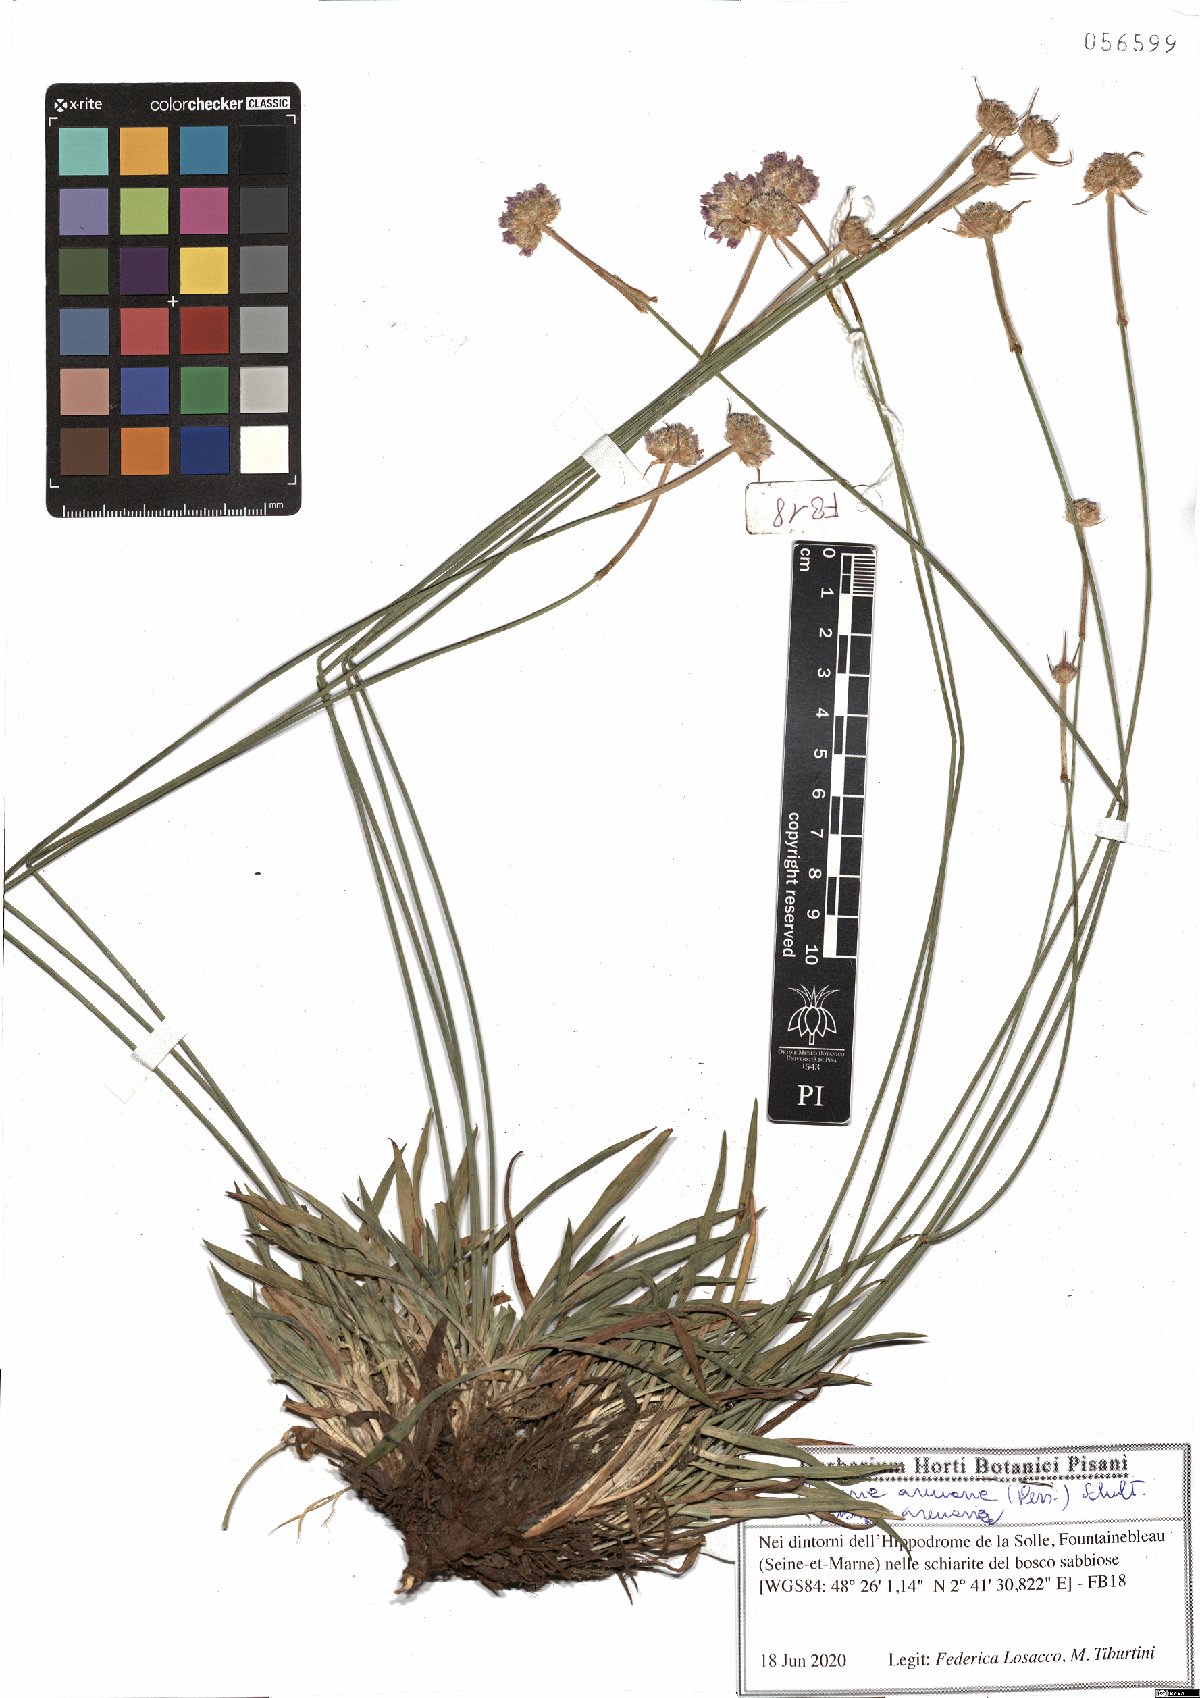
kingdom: Plantae
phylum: Tracheophyta
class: Magnoliopsida
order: Caryophyllales
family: Plumbaginaceae
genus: Armeria
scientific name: Armeria arenaria
